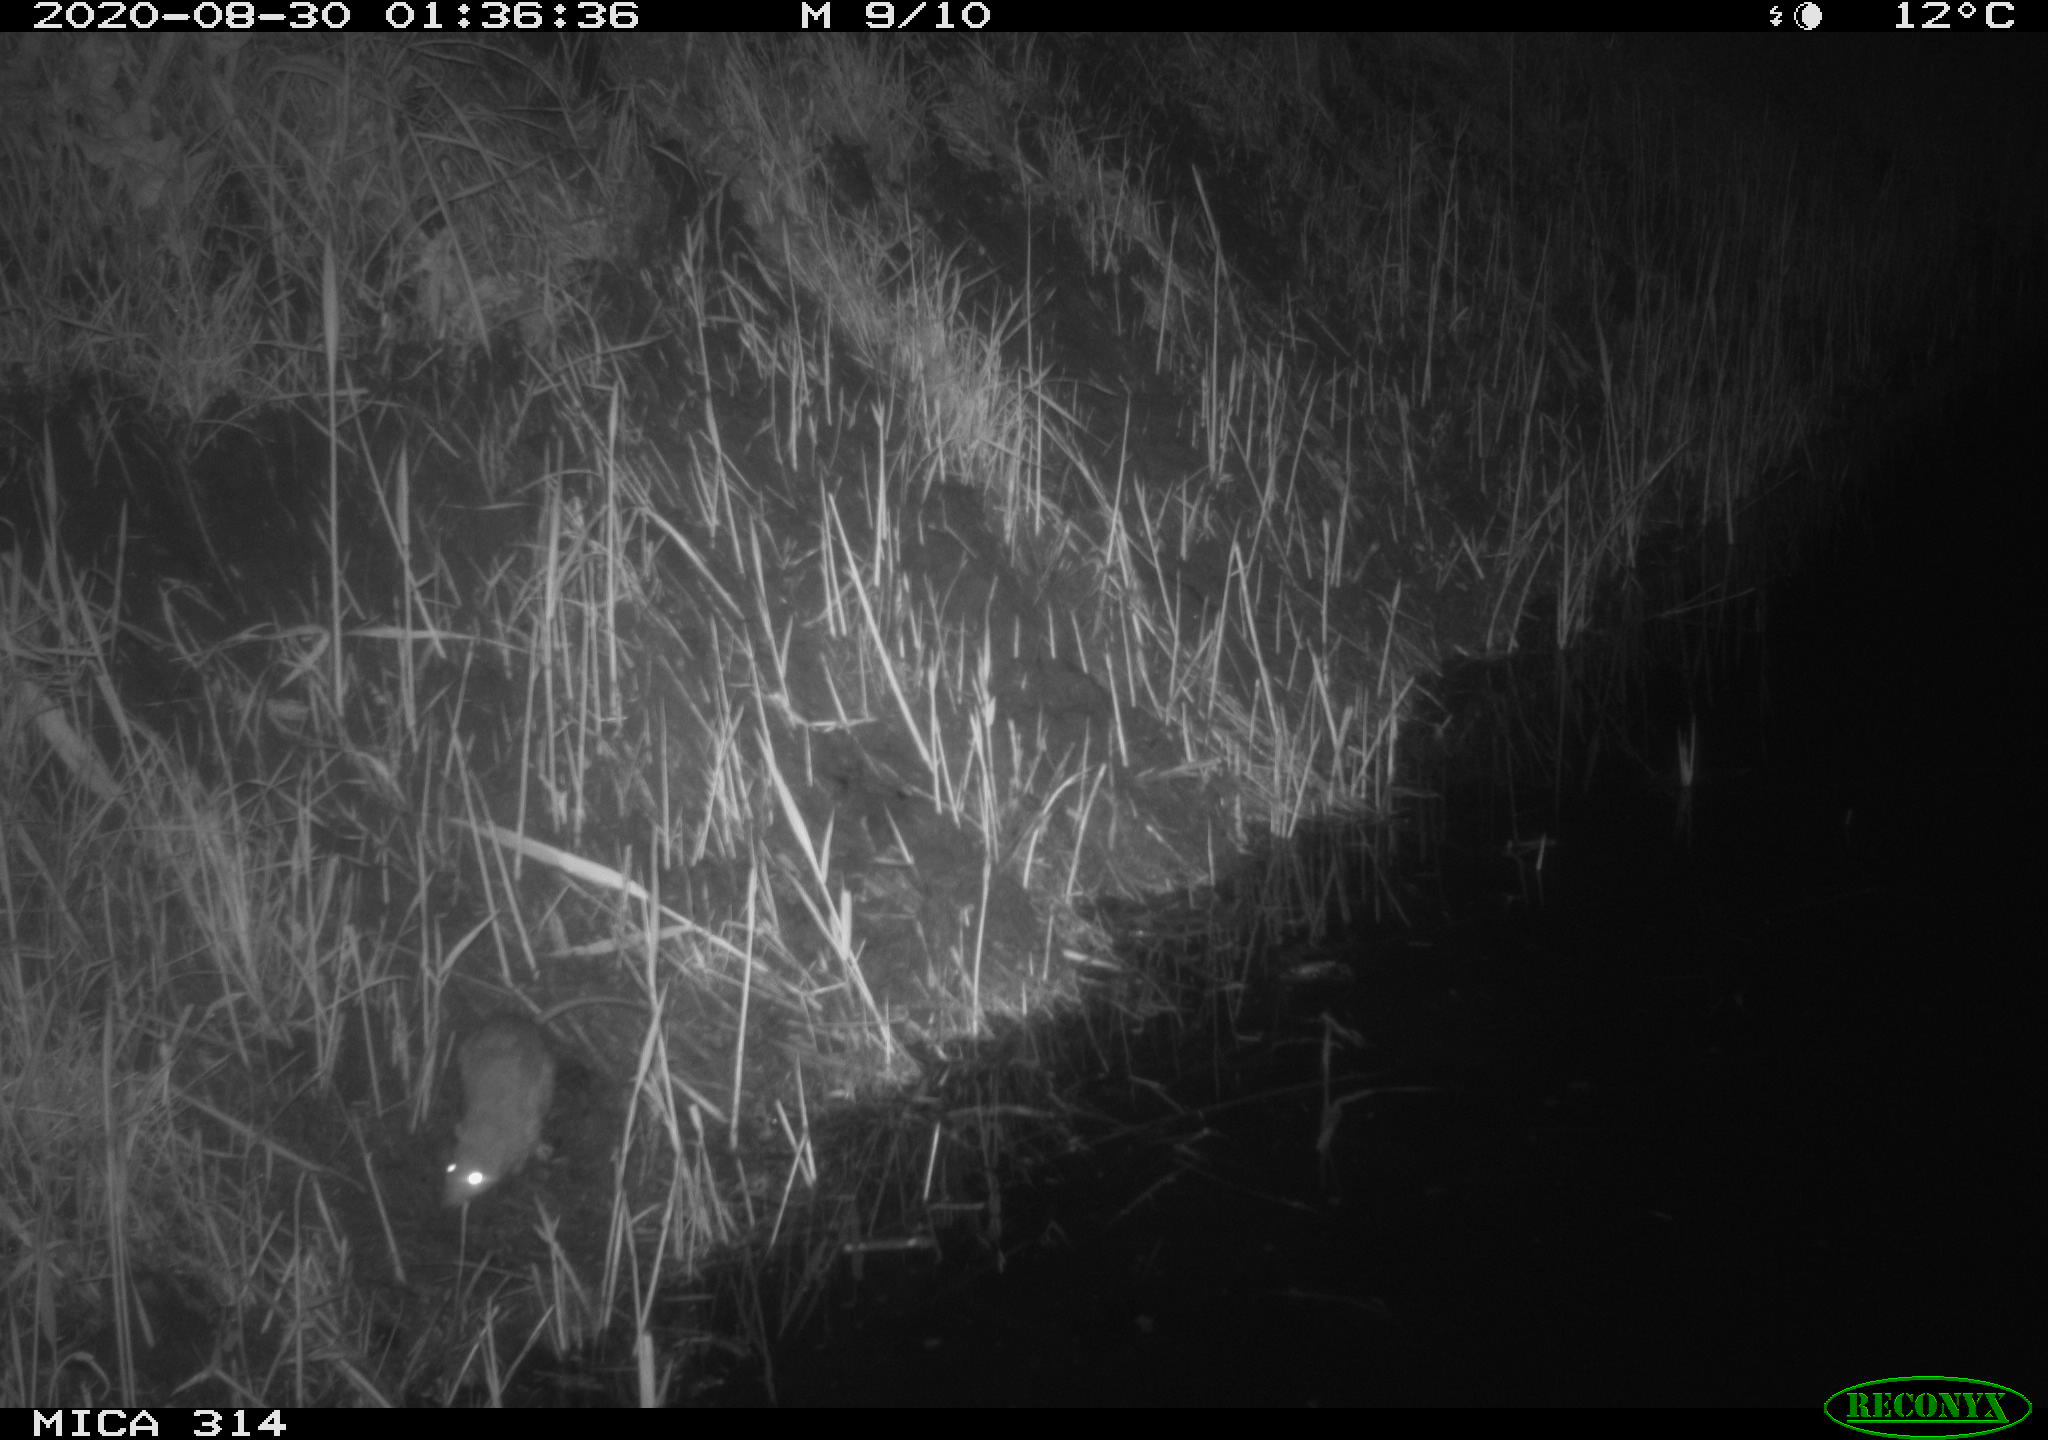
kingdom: Animalia
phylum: Chordata
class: Mammalia
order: Rodentia
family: Muridae
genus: Rattus
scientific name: Rattus norvegicus
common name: Brown rat
